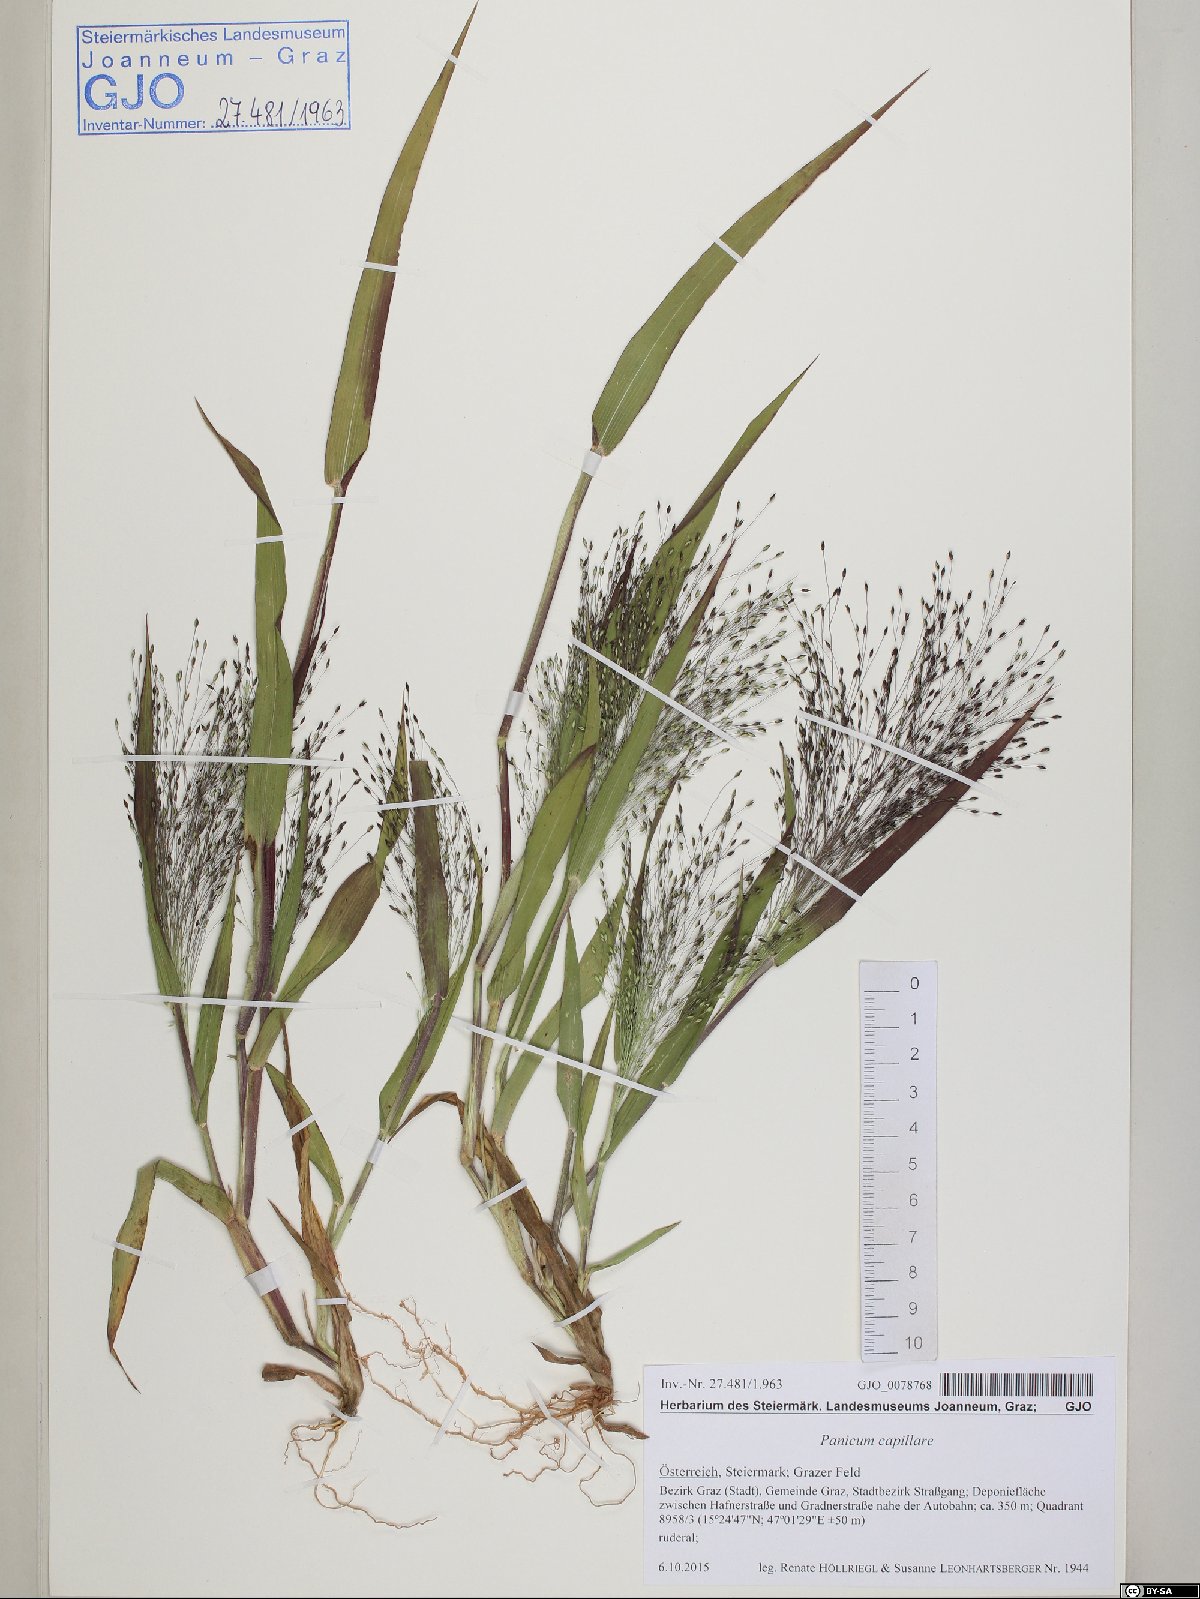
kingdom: Plantae
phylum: Tracheophyta
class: Liliopsida
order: Poales
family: Poaceae
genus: Panicum
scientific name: Panicum capillare
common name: Witch-grass
